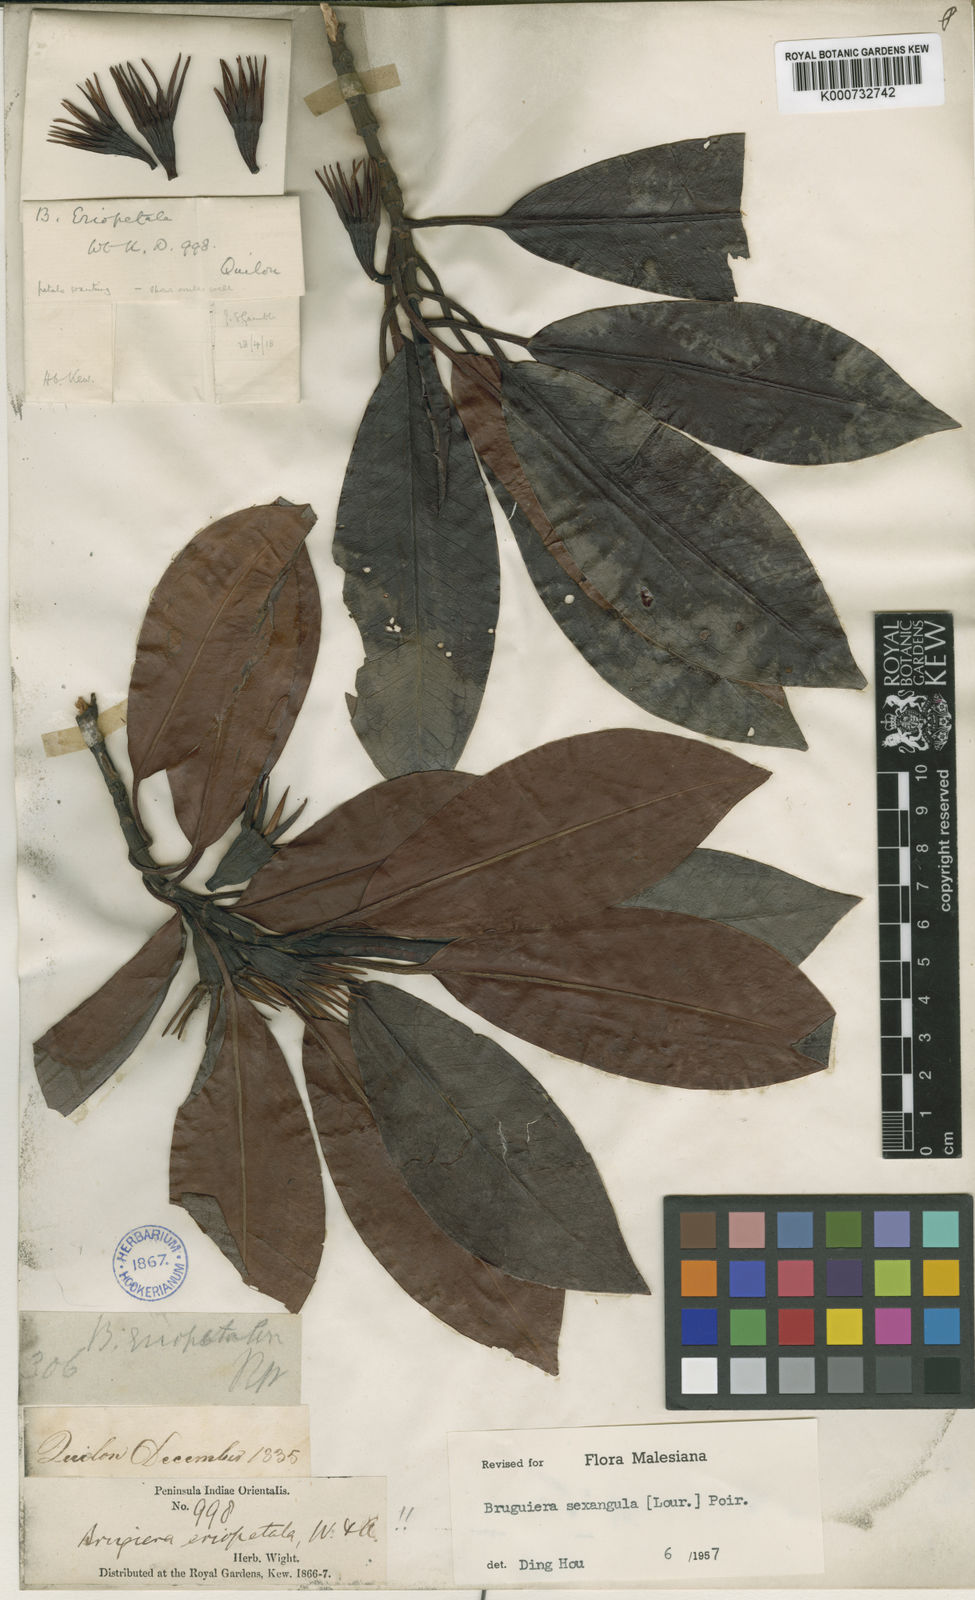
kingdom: Plantae
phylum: Tracheophyta
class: Magnoliopsida
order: Malpighiales
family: Rhizophoraceae
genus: Bruguiera
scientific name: Bruguiera sexangula
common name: Oriental mangrove
